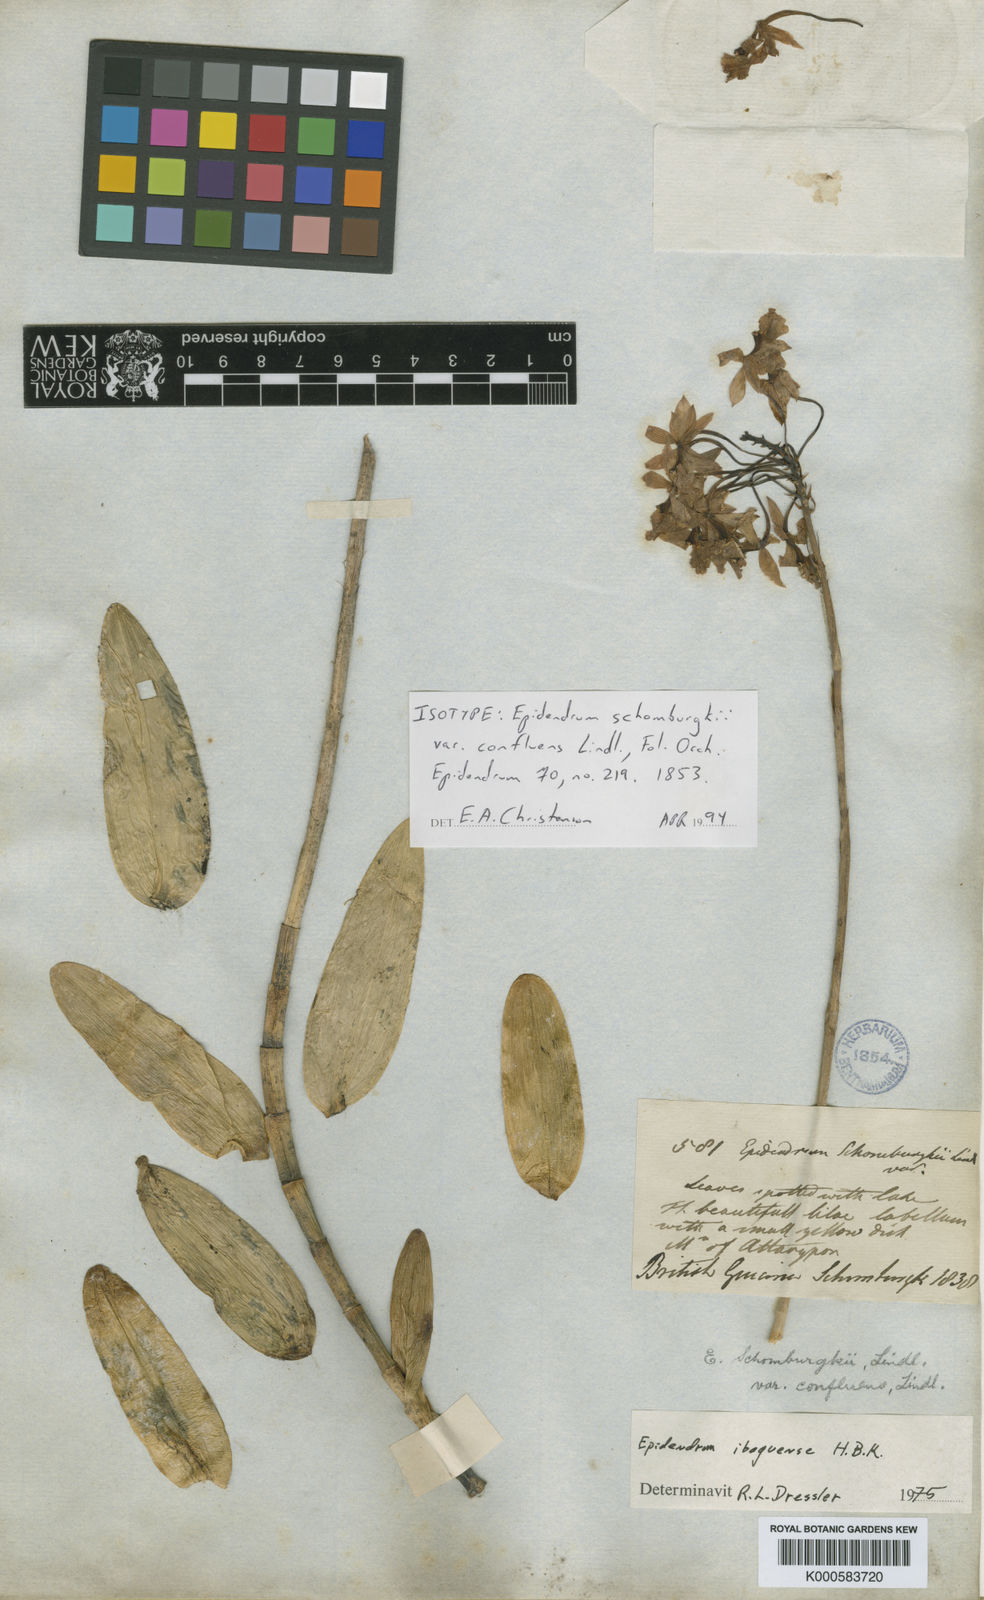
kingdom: Plantae
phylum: Tracheophyta
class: Liliopsida
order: Asparagales
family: Orchidaceae
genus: Epidendrum
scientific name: Epidendrum ibaguense
